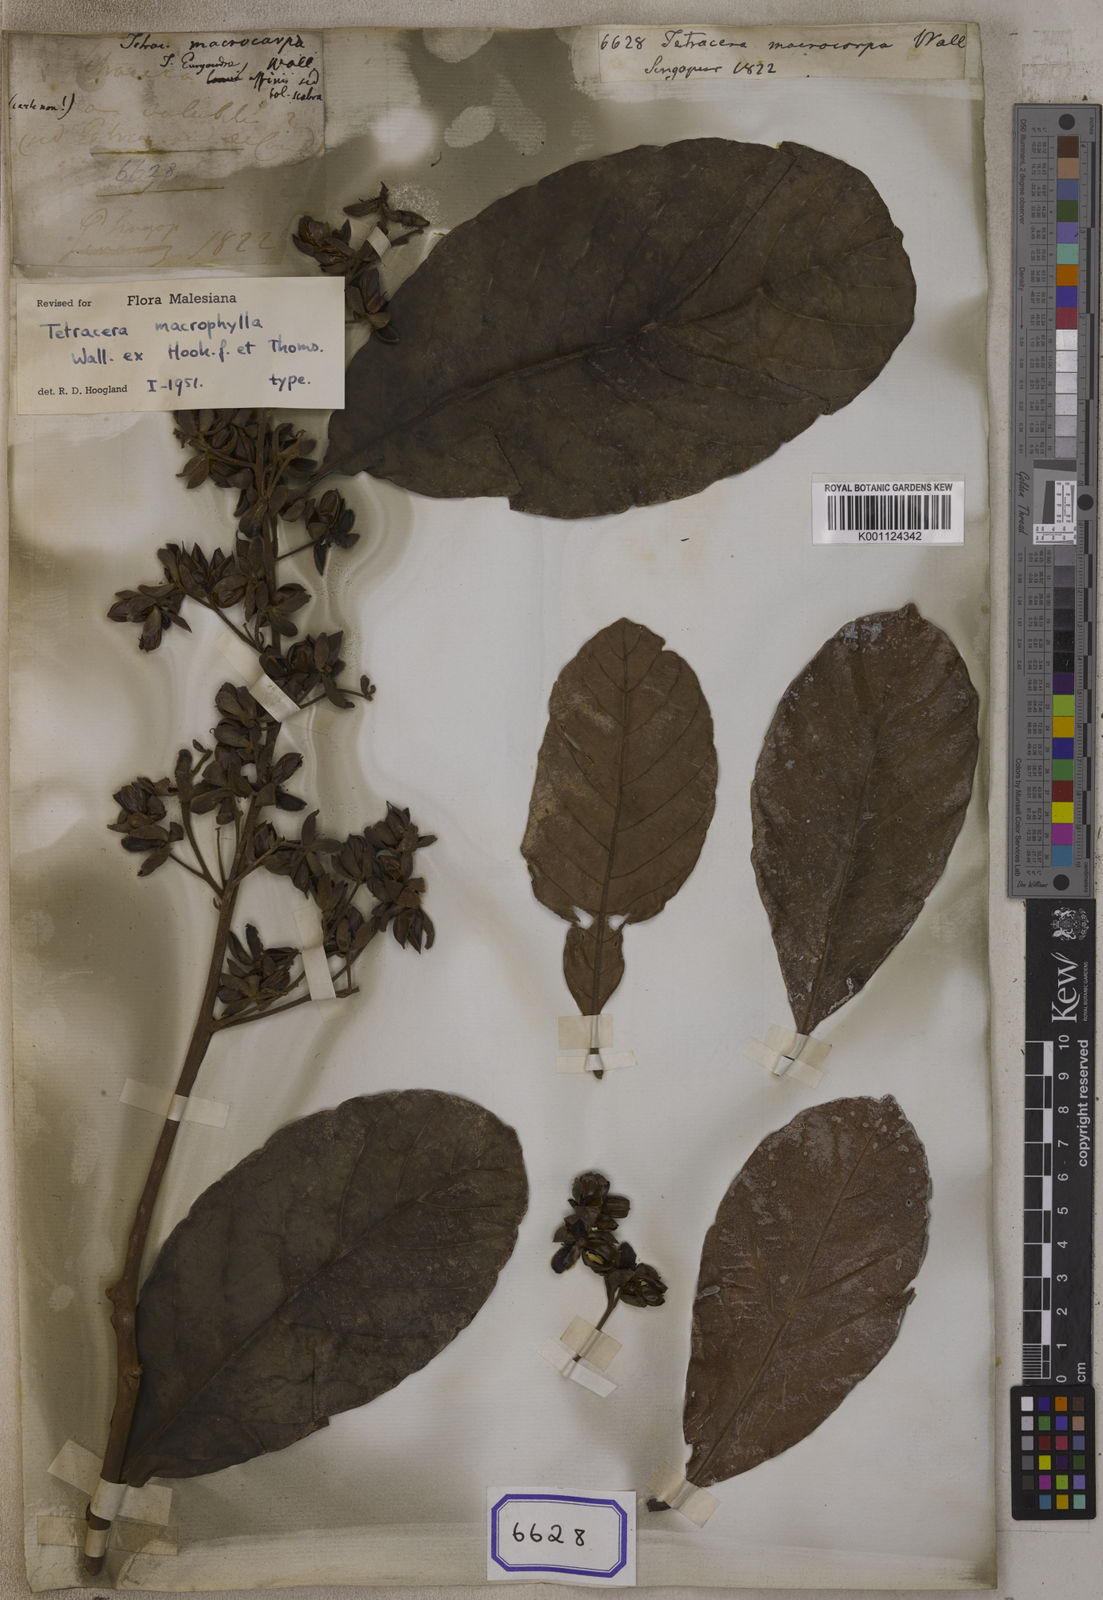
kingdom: Plantae
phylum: Tracheophyta
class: Magnoliopsida
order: Dilleniales
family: Dilleniaceae
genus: Tetracera
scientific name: Tetracera macrophylla
